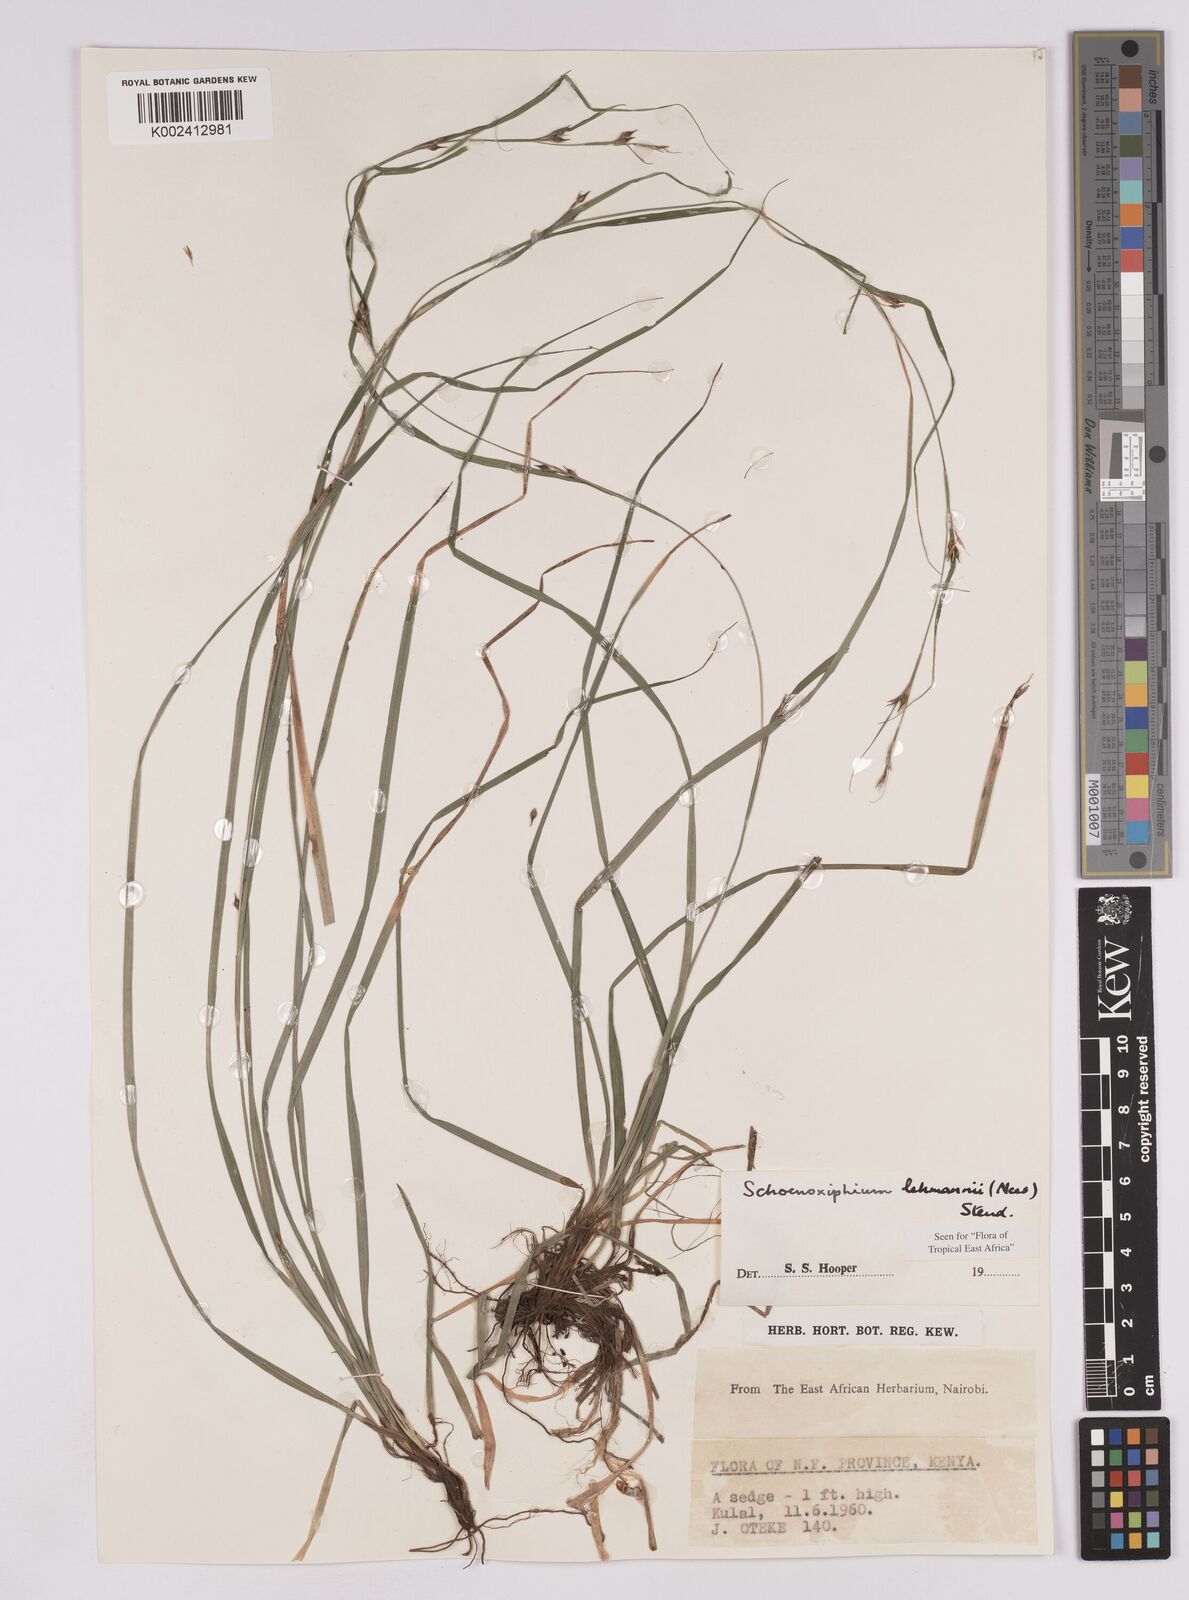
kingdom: Plantae
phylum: Tracheophyta
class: Liliopsida
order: Poales
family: Cyperaceae
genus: Carex
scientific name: Carex uhligii
